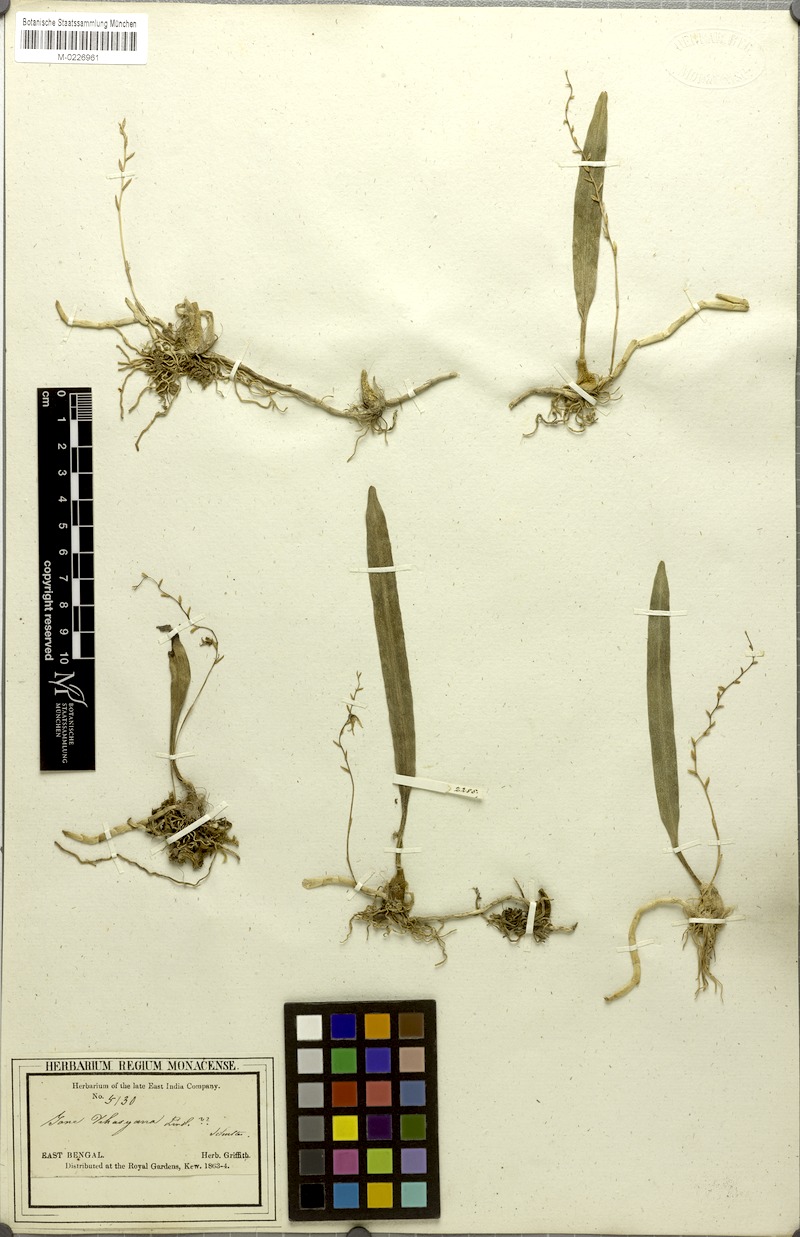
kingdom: Plantae
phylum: Tracheophyta
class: Liliopsida
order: Asparagales
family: Orchidaceae
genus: Bulbophyllum
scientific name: Bulbophyllum roseopictum
